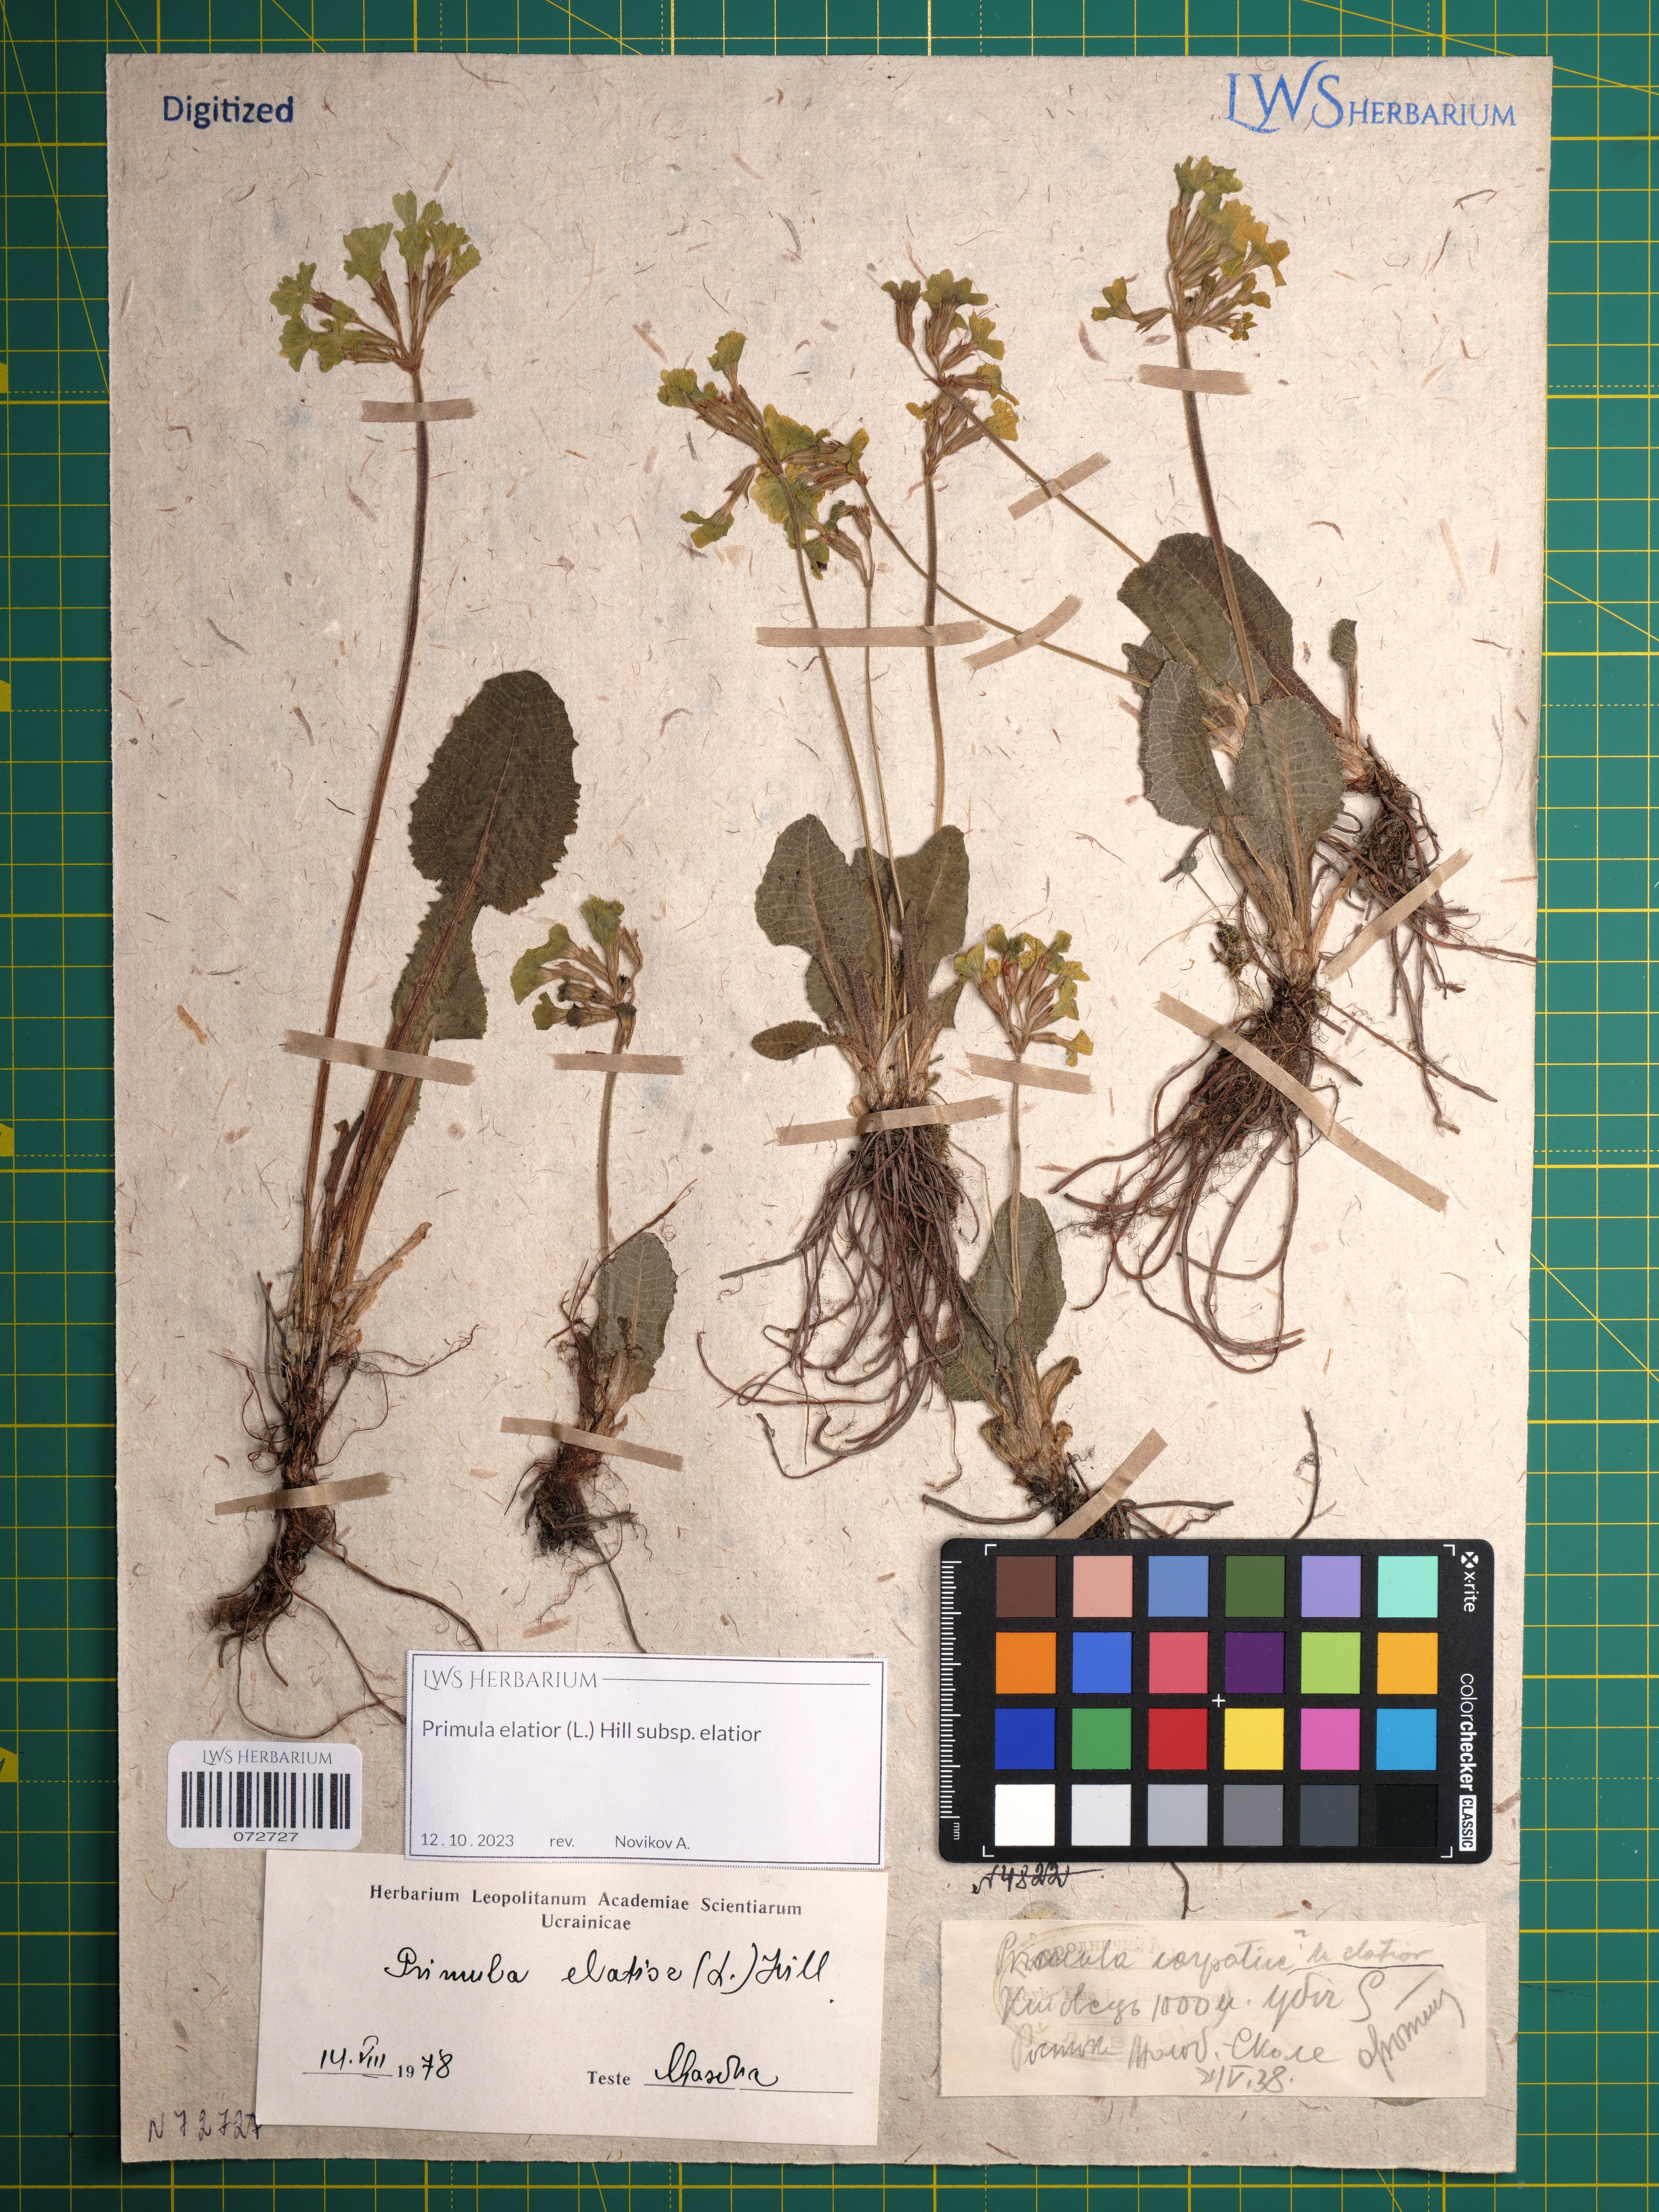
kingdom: Plantae
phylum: Tracheophyta
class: Magnoliopsida
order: Ericales
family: Primulaceae
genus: Primula
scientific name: Primula elatior
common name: Oxlip
